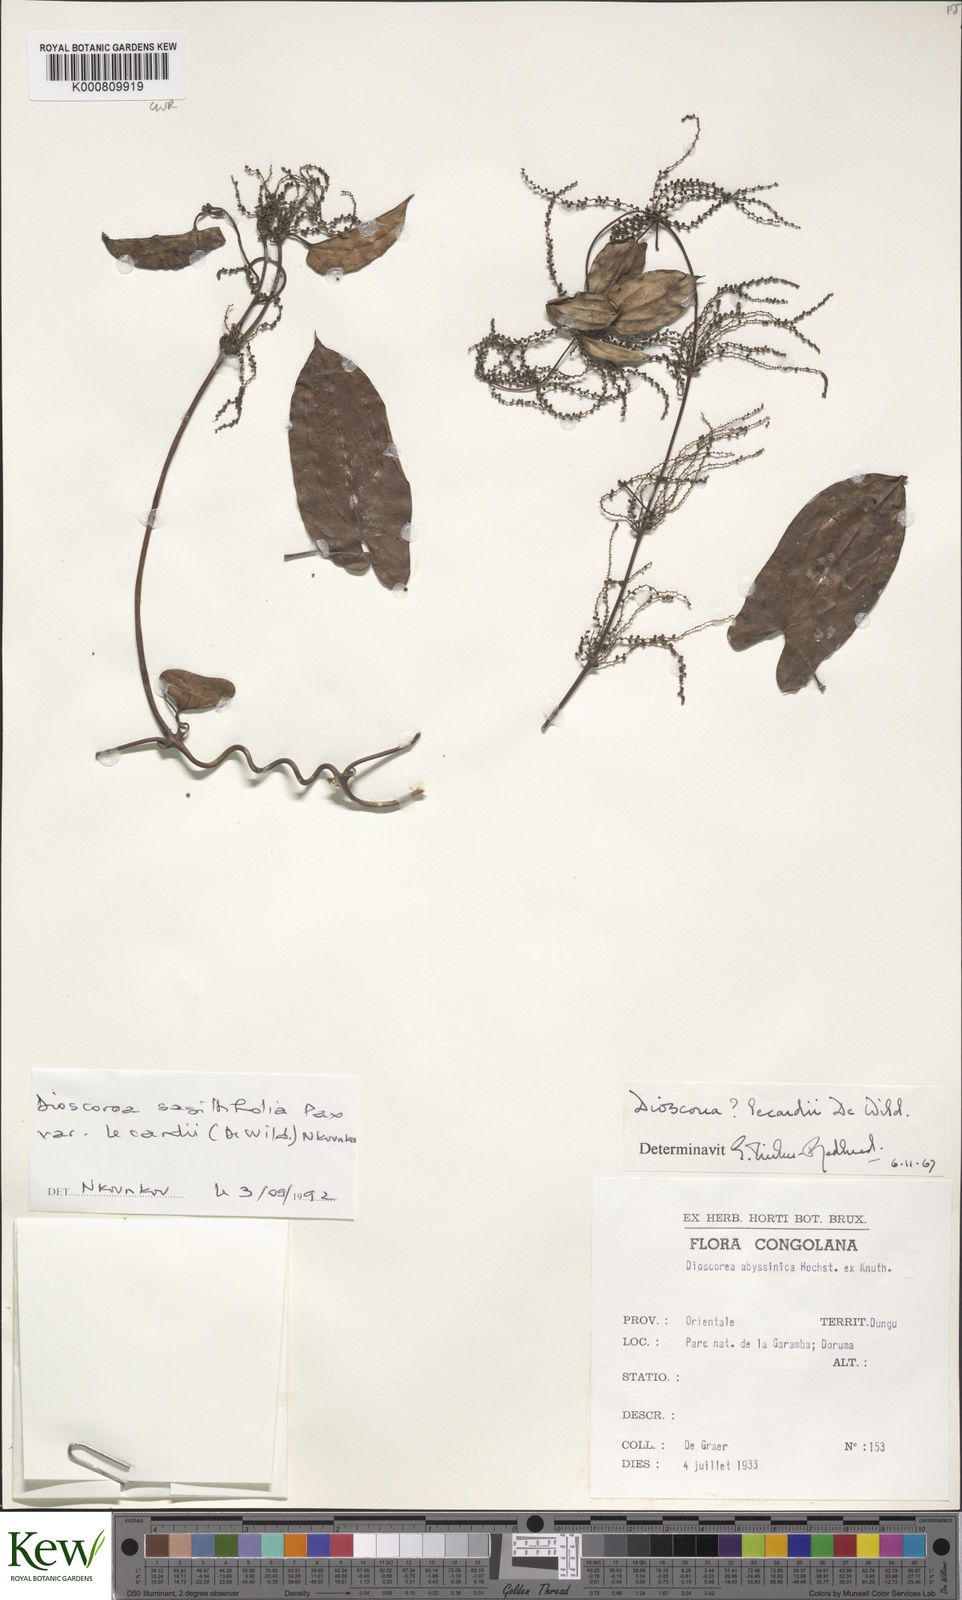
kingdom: Plantae
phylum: Tracheophyta
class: Liliopsida
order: Dioscoreales
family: Dioscoreaceae
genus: Dioscorea
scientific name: Dioscorea sagittifolia
